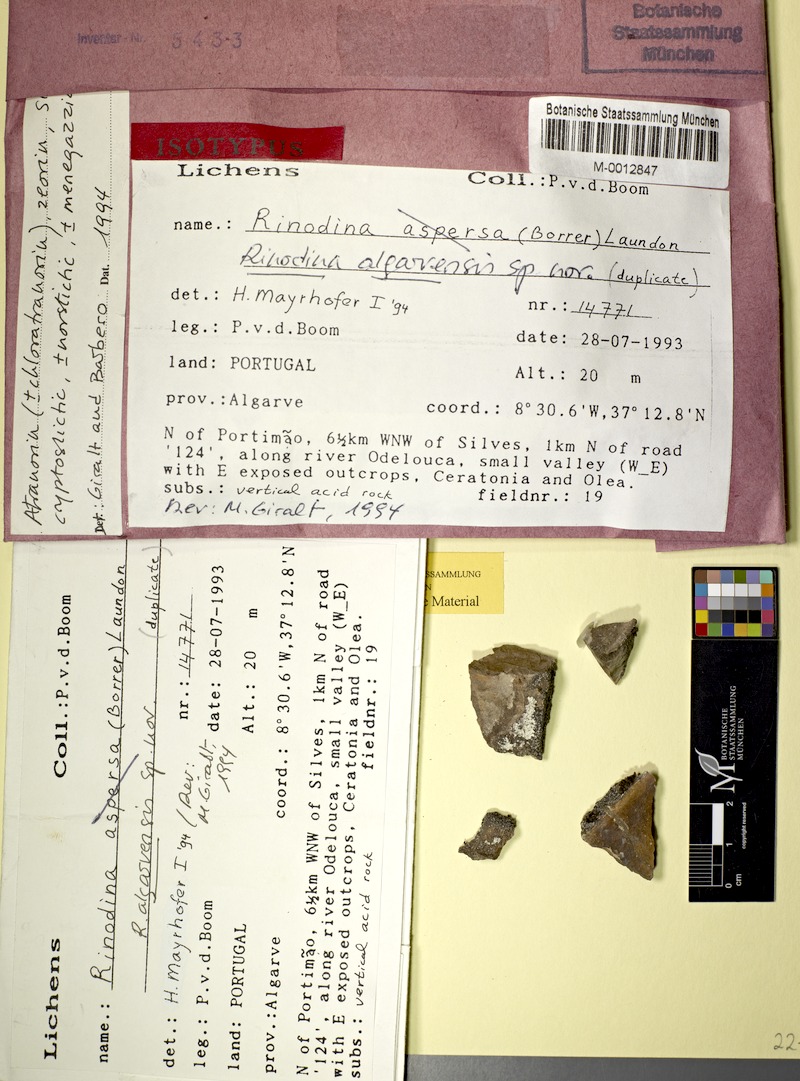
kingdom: Fungi
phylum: Ascomycota
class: Lecanoromycetes
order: Caliciales
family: Physciaceae
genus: Rinodina
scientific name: Rinodina
